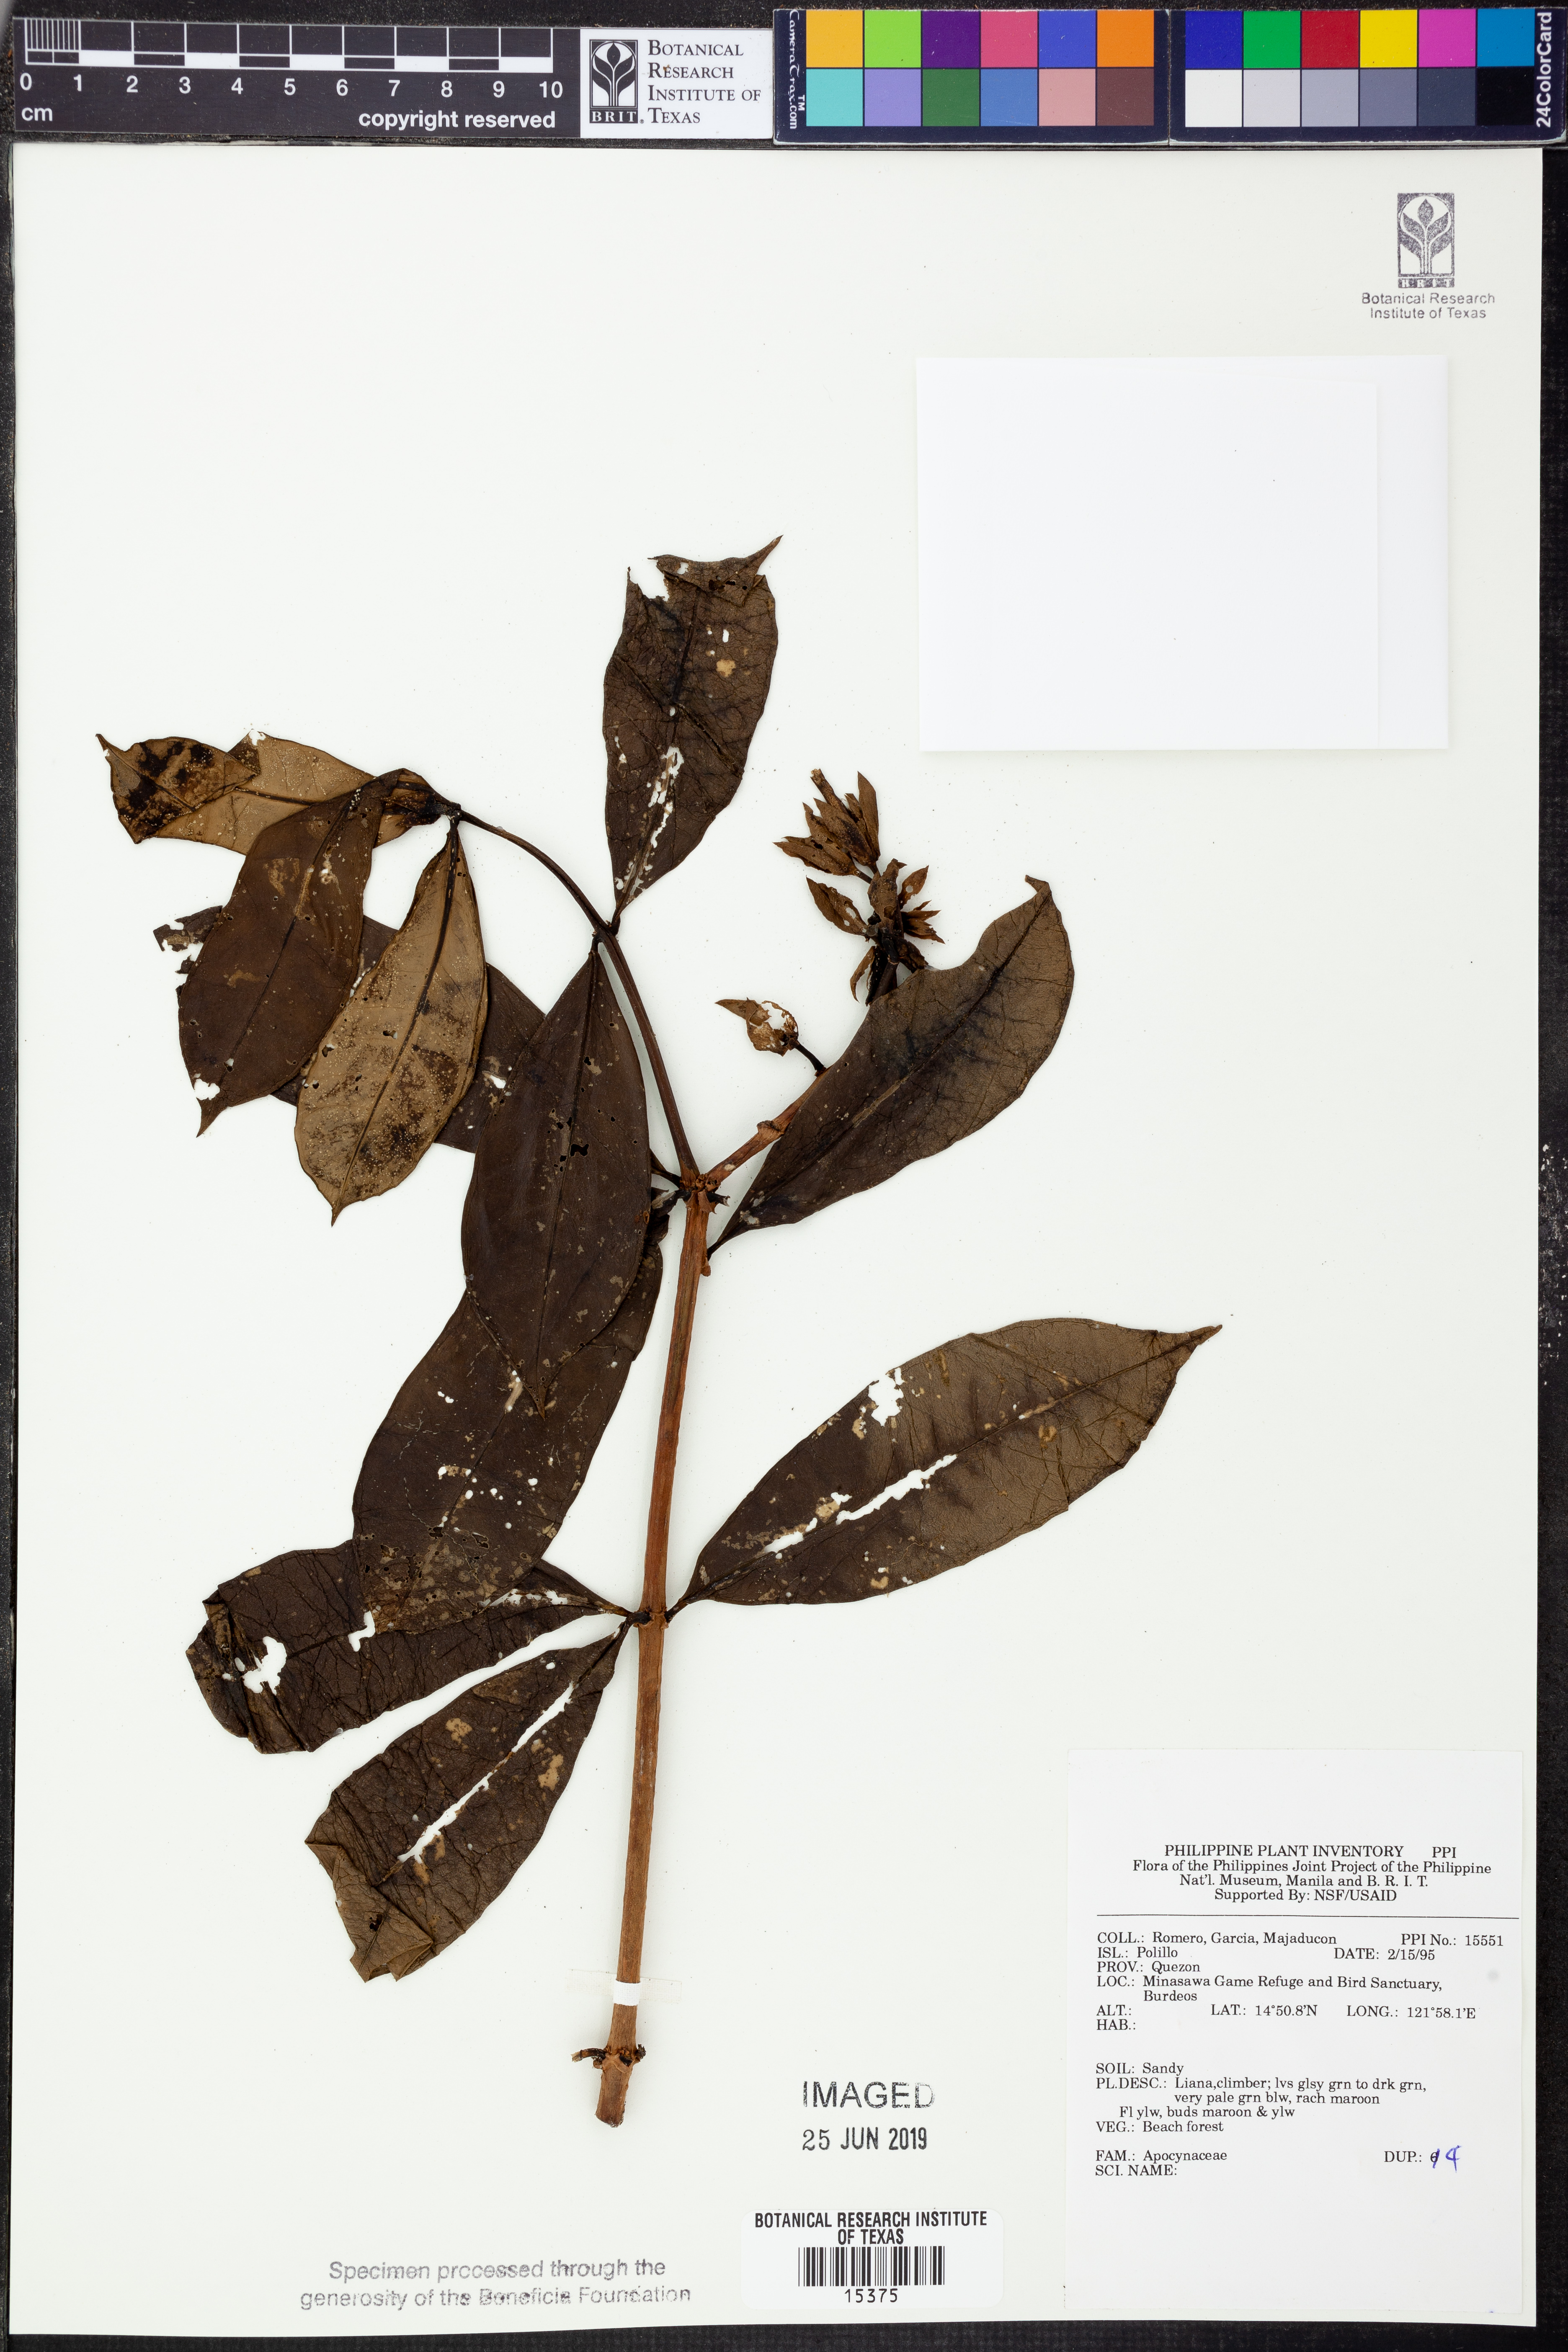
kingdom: Plantae
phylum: Tracheophyta
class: Magnoliopsida
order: Gentianales
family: Apocynaceae
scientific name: Apocynaceae
